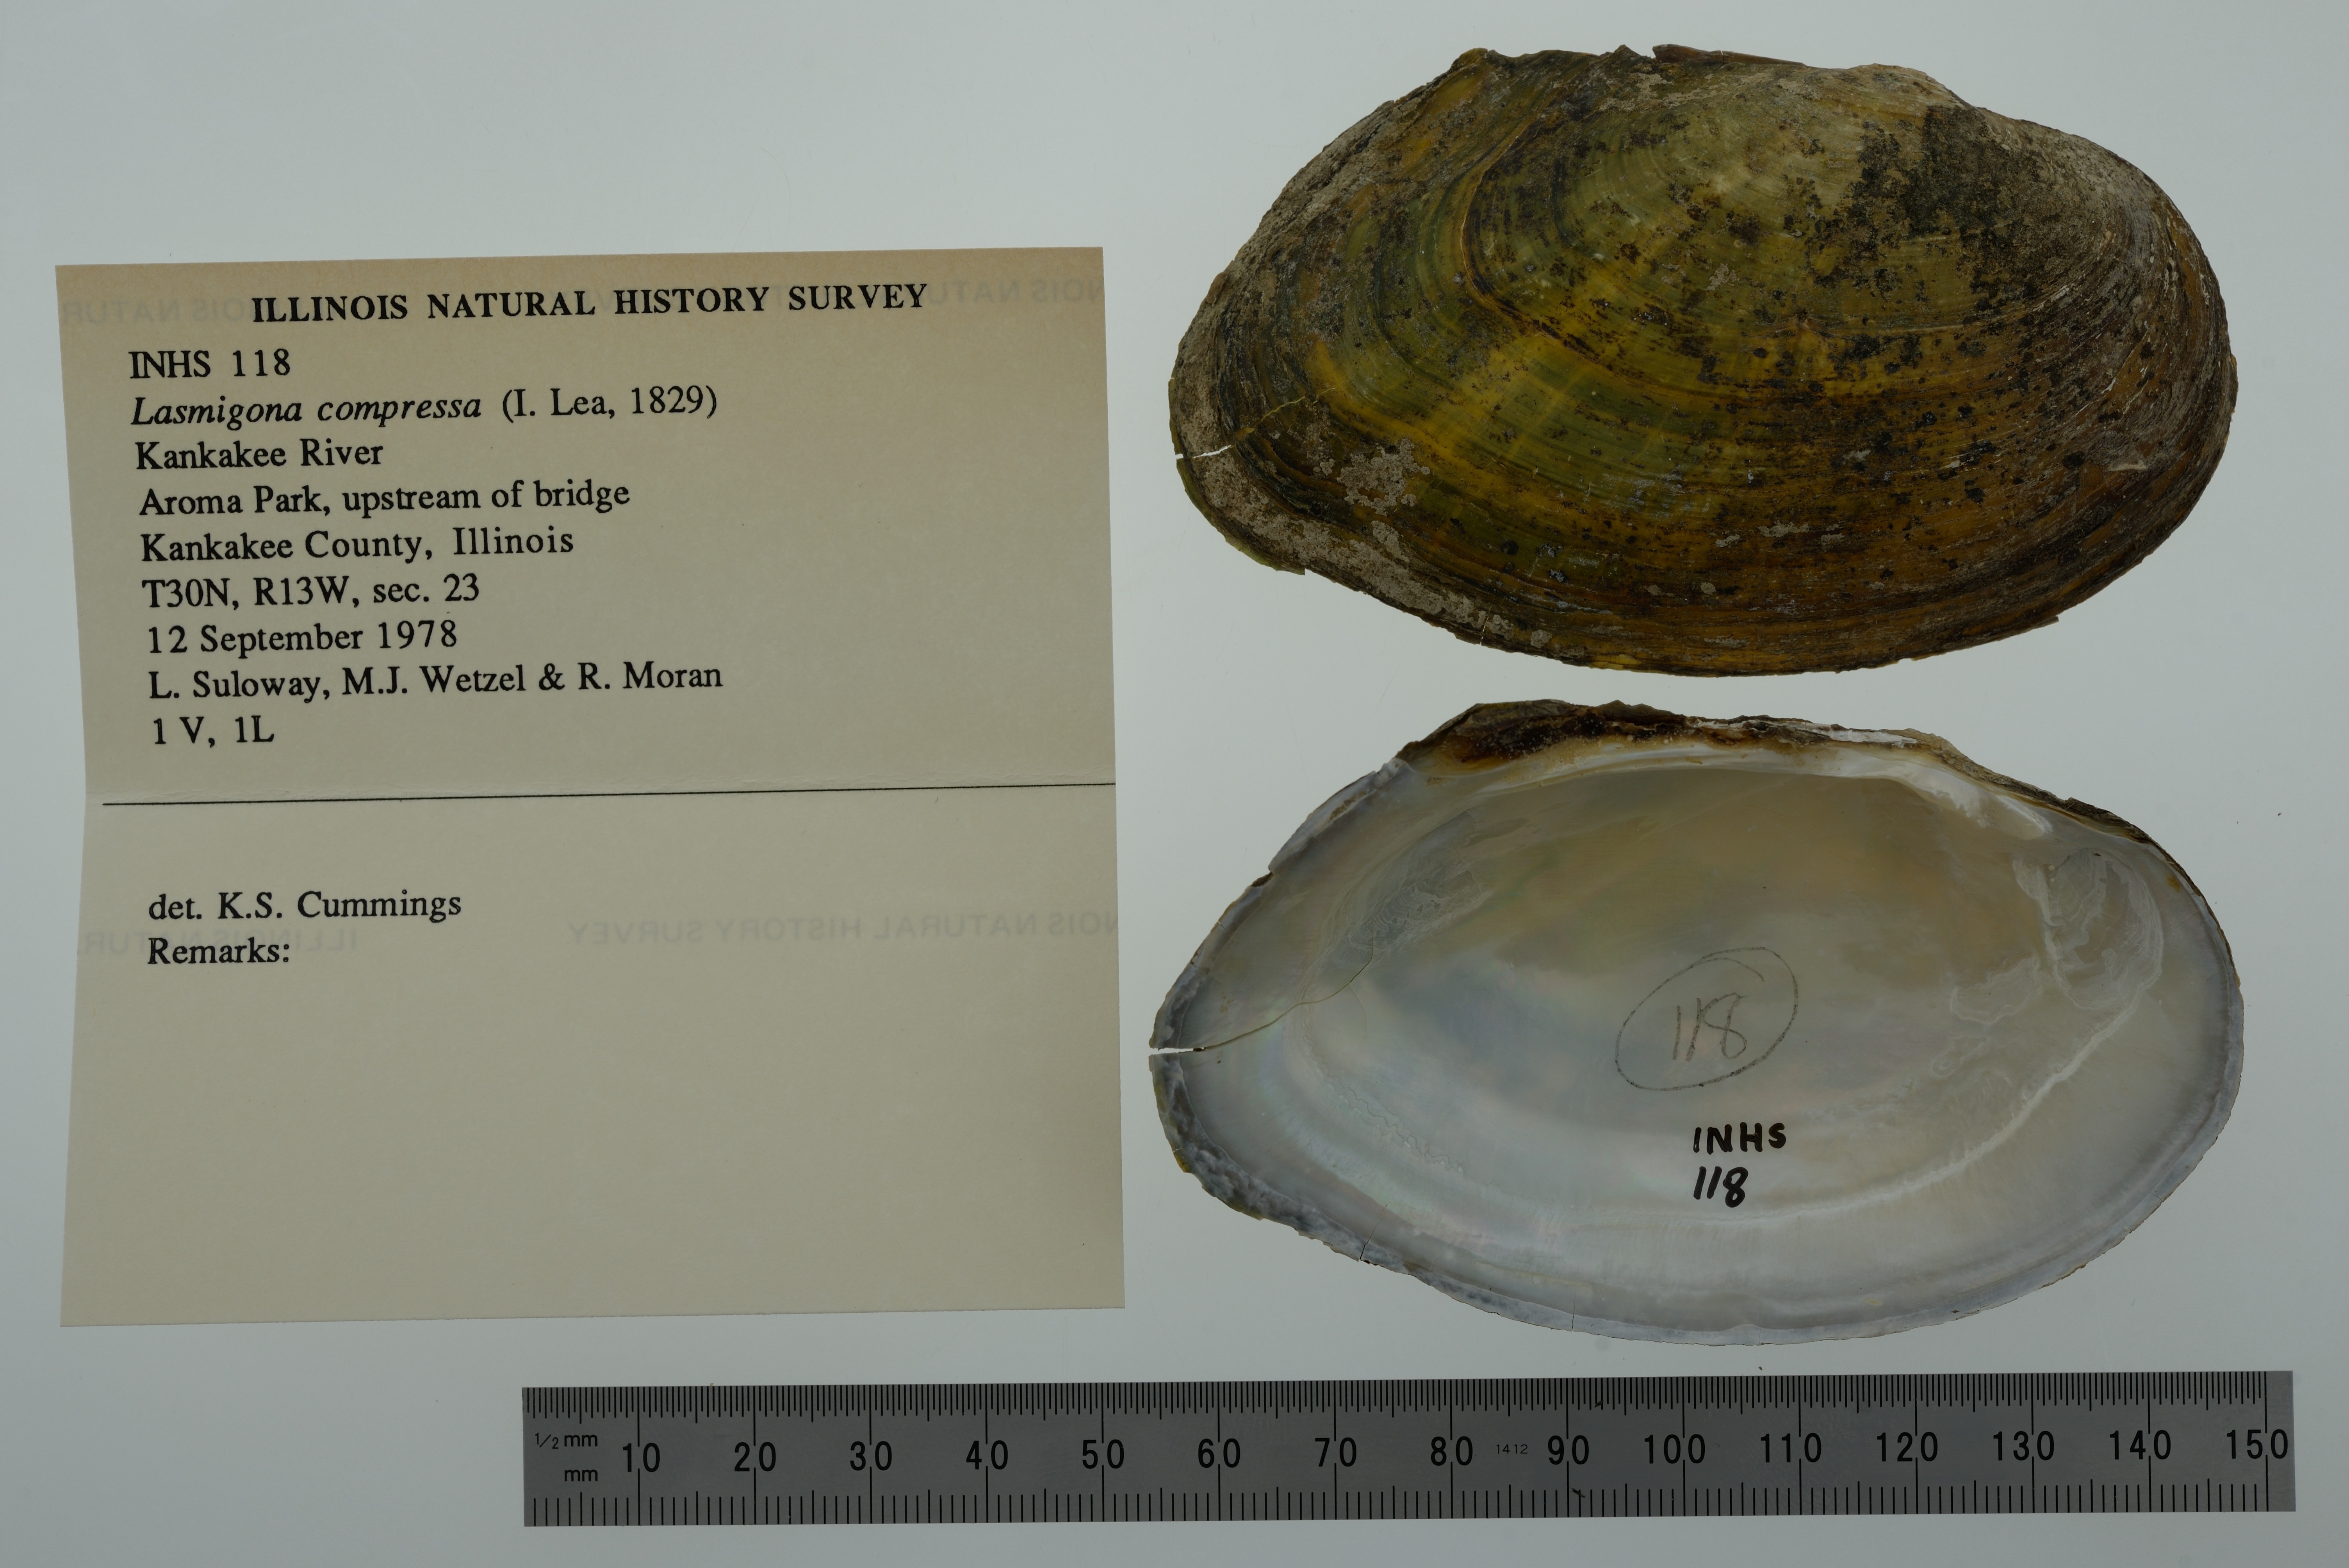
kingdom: Animalia
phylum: Mollusca
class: Bivalvia
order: Unionida
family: Unionidae
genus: Lasmigona
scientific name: Lasmigona compressa
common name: Creek heelsplitter
